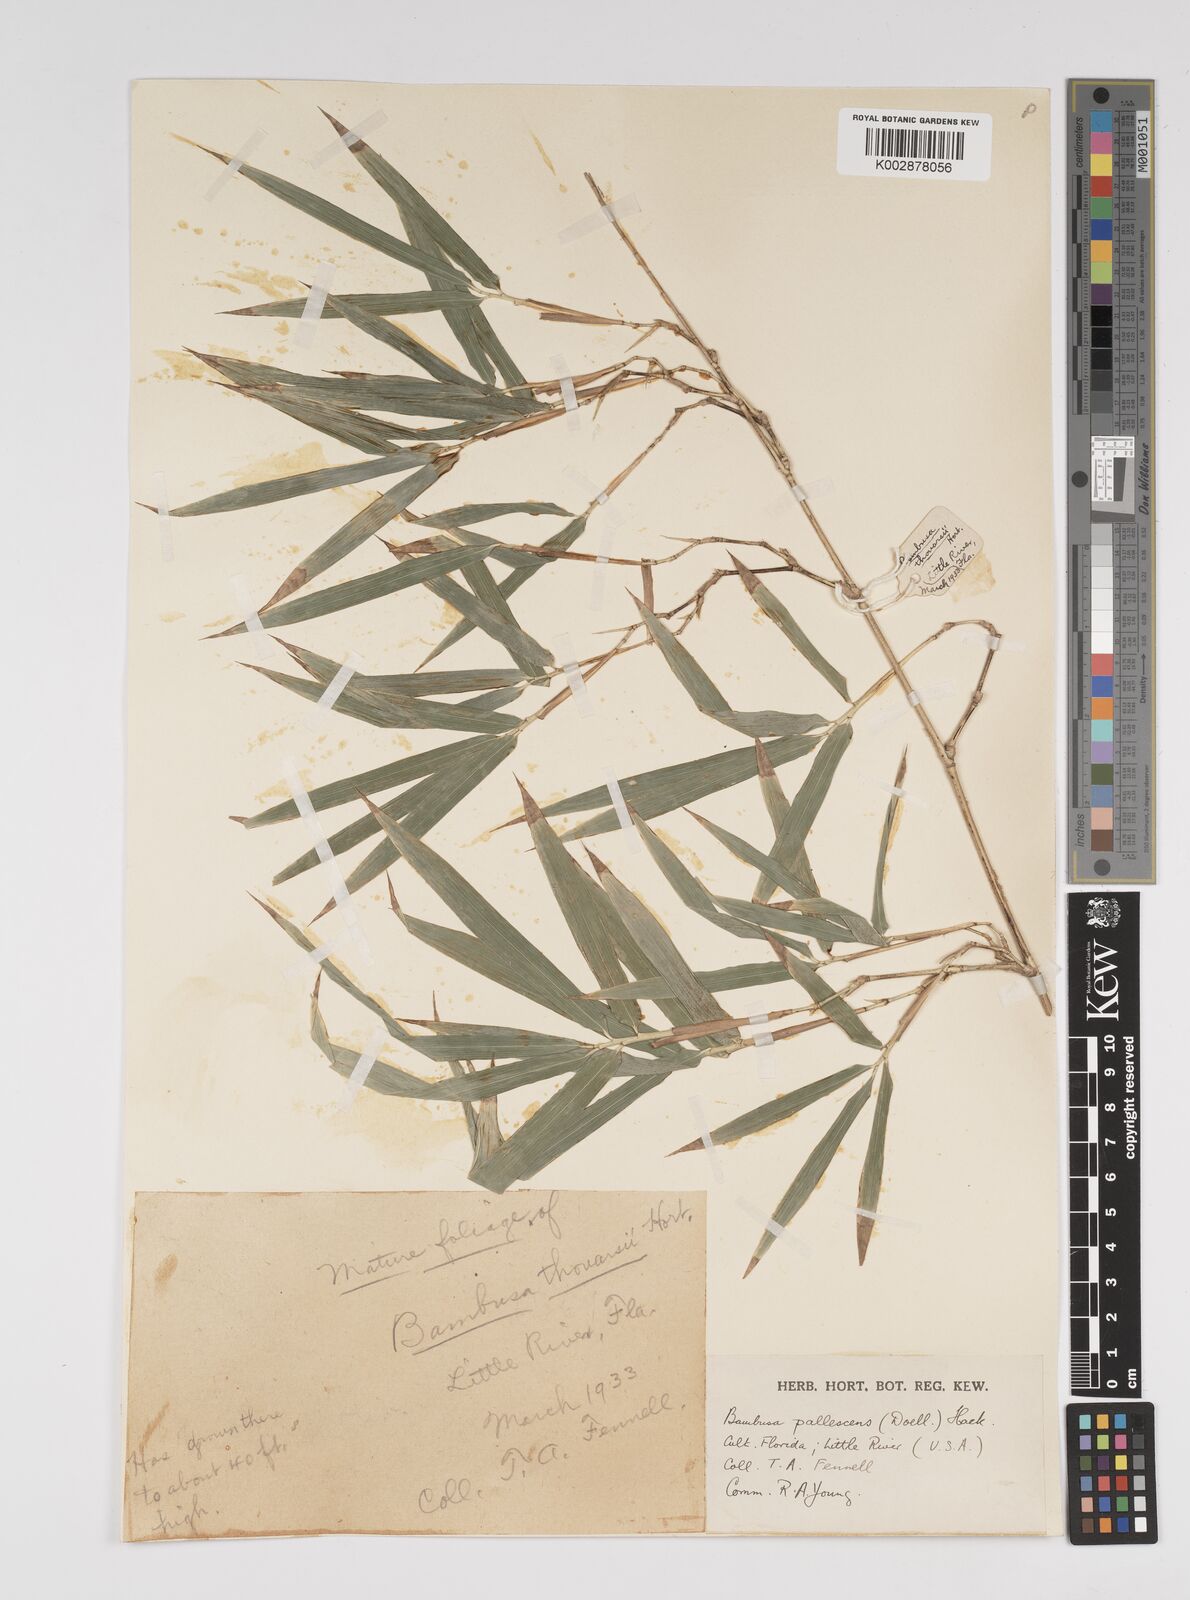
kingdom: Plantae
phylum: Tracheophyta
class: Liliopsida
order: Poales
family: Poaceae
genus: Bambusa
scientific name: Bambusa tuldoides
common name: Verdant bamboo
